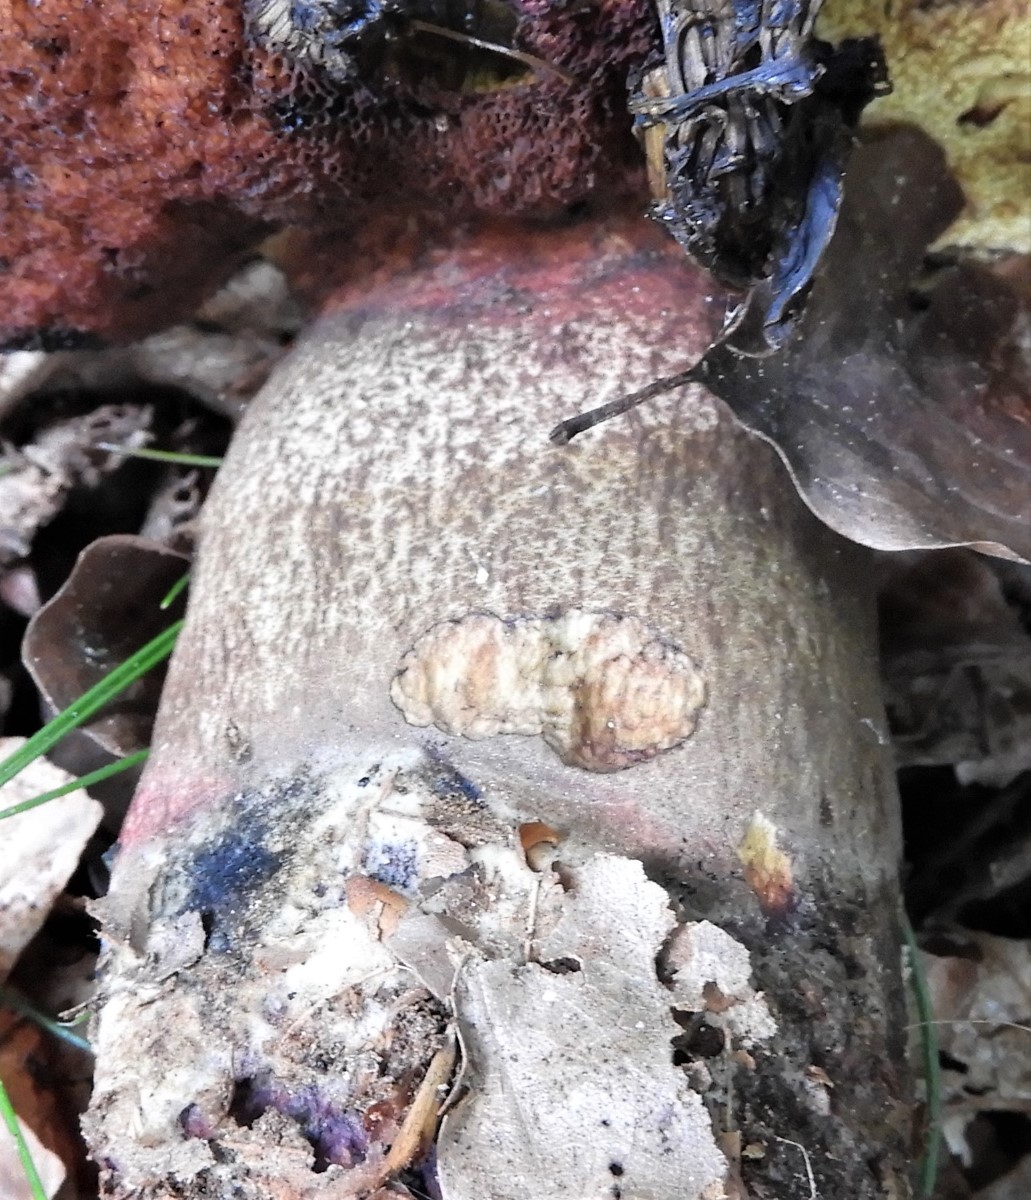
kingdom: Fungi
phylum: Basidiomycota
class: Agaricomycetes
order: Boletales
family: Boletaceae
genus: Neoboletus
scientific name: Neoboletus erythropus
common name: punktstokket indigorørhat
